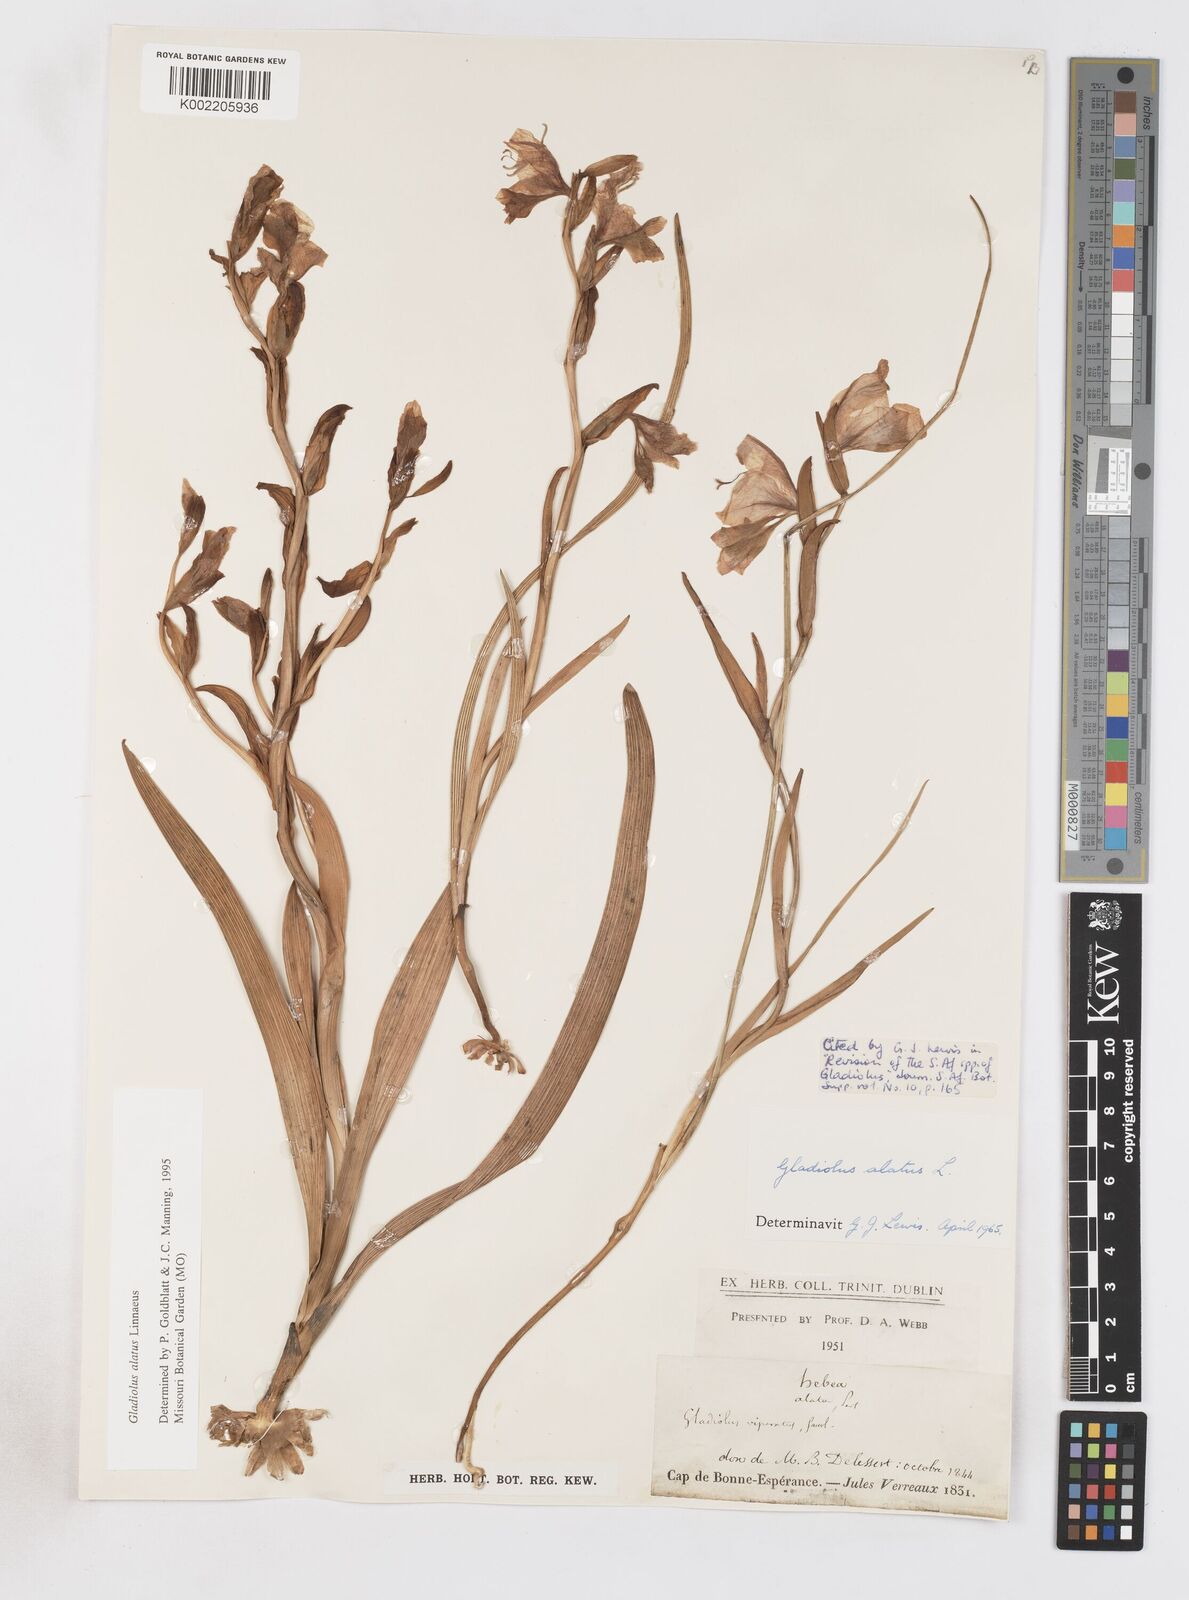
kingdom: Plantae
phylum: Tracheophyta
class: Liliopsida
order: Asparagales
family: Iridaceae
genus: Gladiolus
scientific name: Gladiolus alatus
